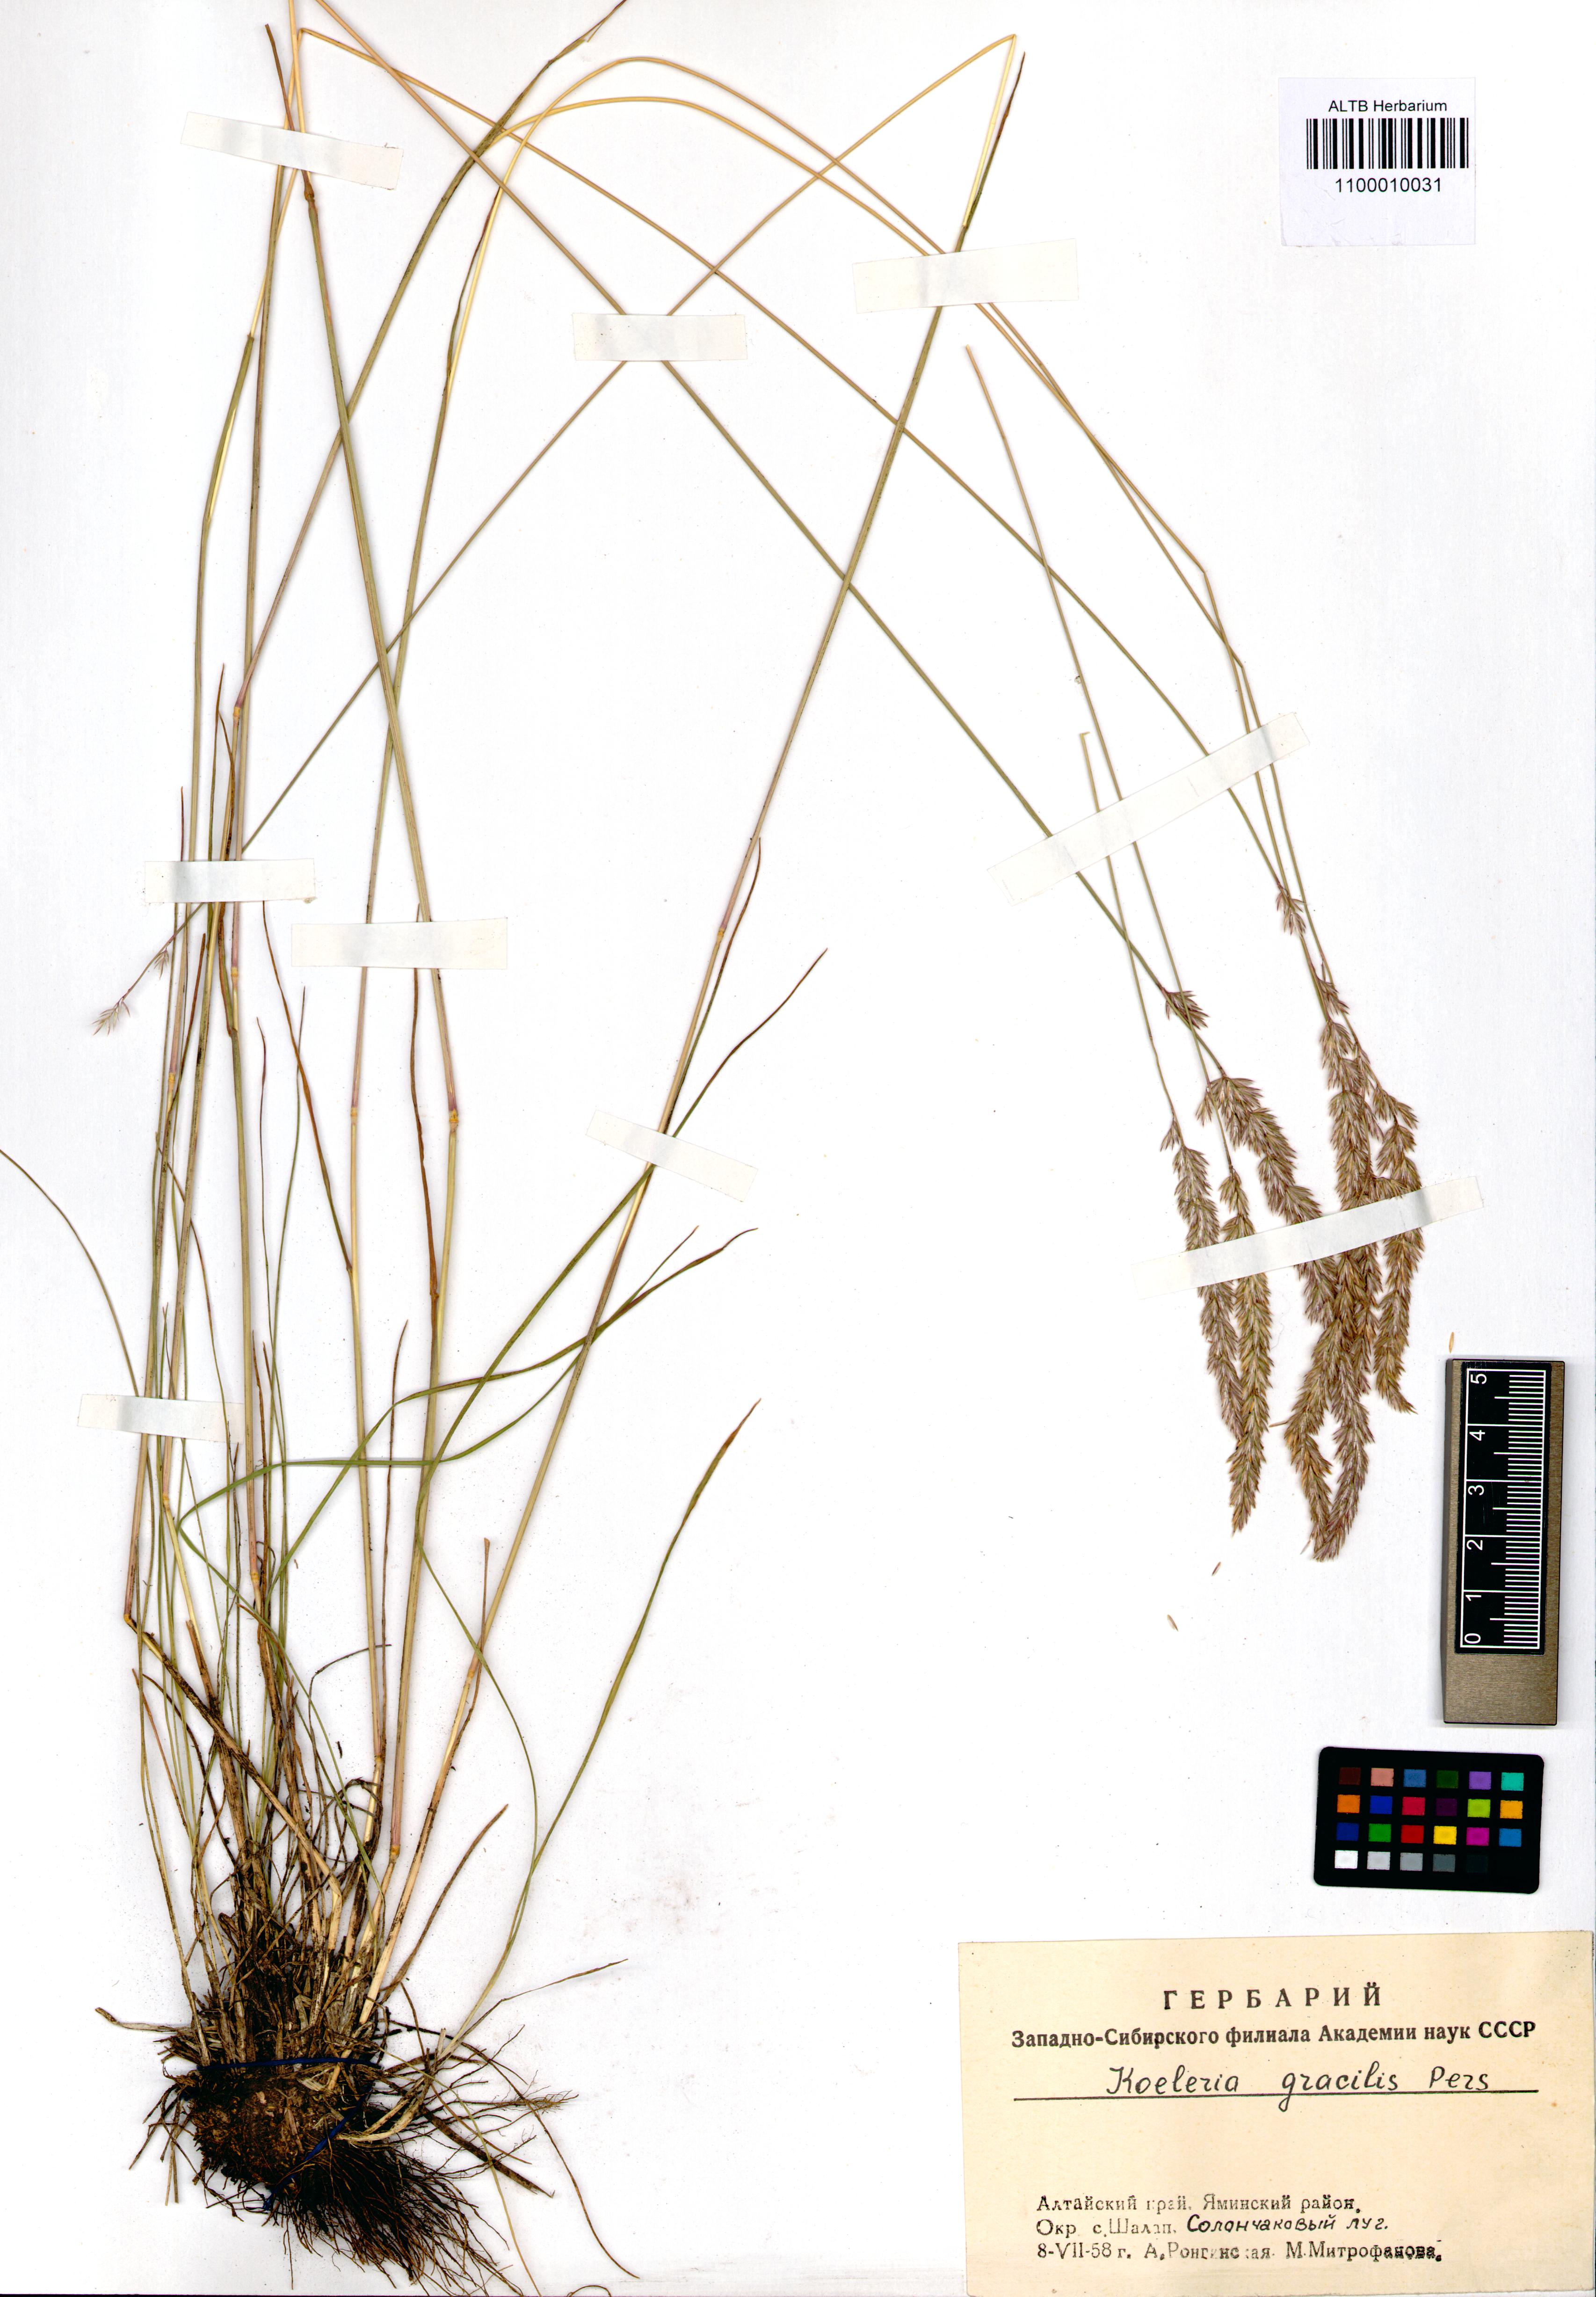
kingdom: Plantae
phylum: Tracheophyta
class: Liliopsida
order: Poales
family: Poaceae
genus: Koeleria
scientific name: Koeleria macrantha
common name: Crested hair-grass
